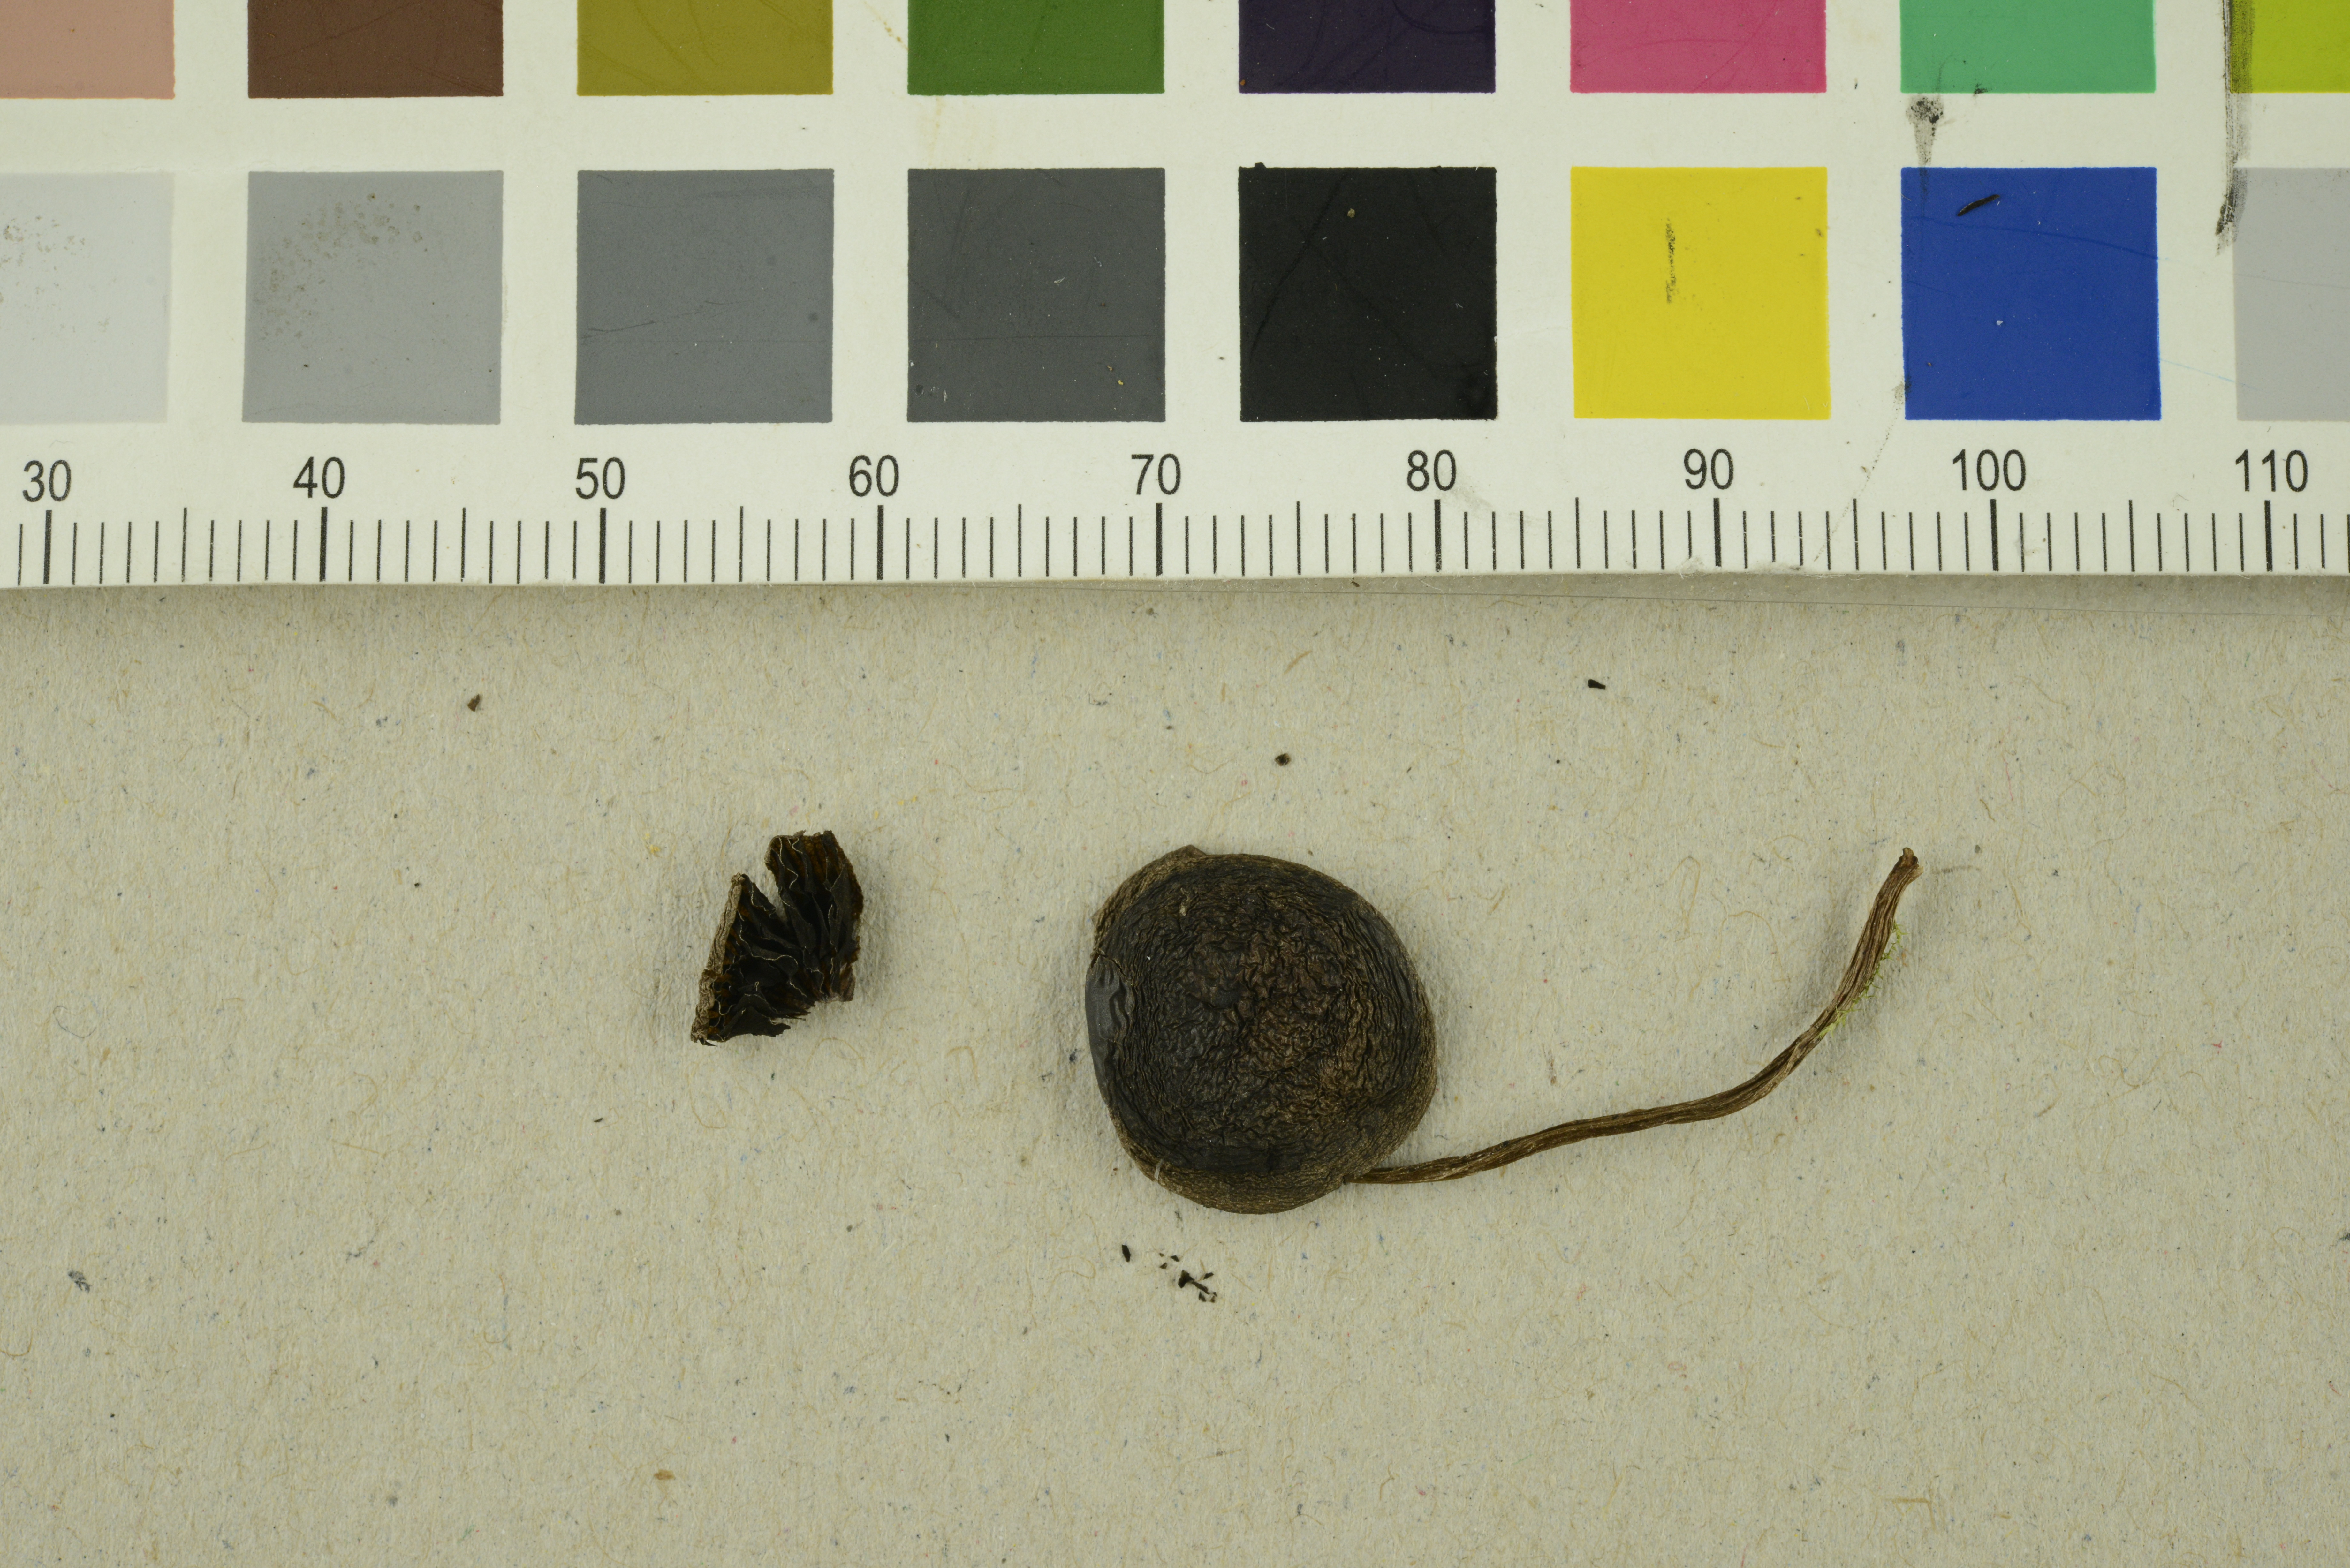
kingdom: Fungi
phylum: Basidiomycota
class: Agaricomycetes
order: Agaricales
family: Bolbitiaceae
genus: Panaeolus
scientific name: Panaeolus fimicola
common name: Turf mottlegill
